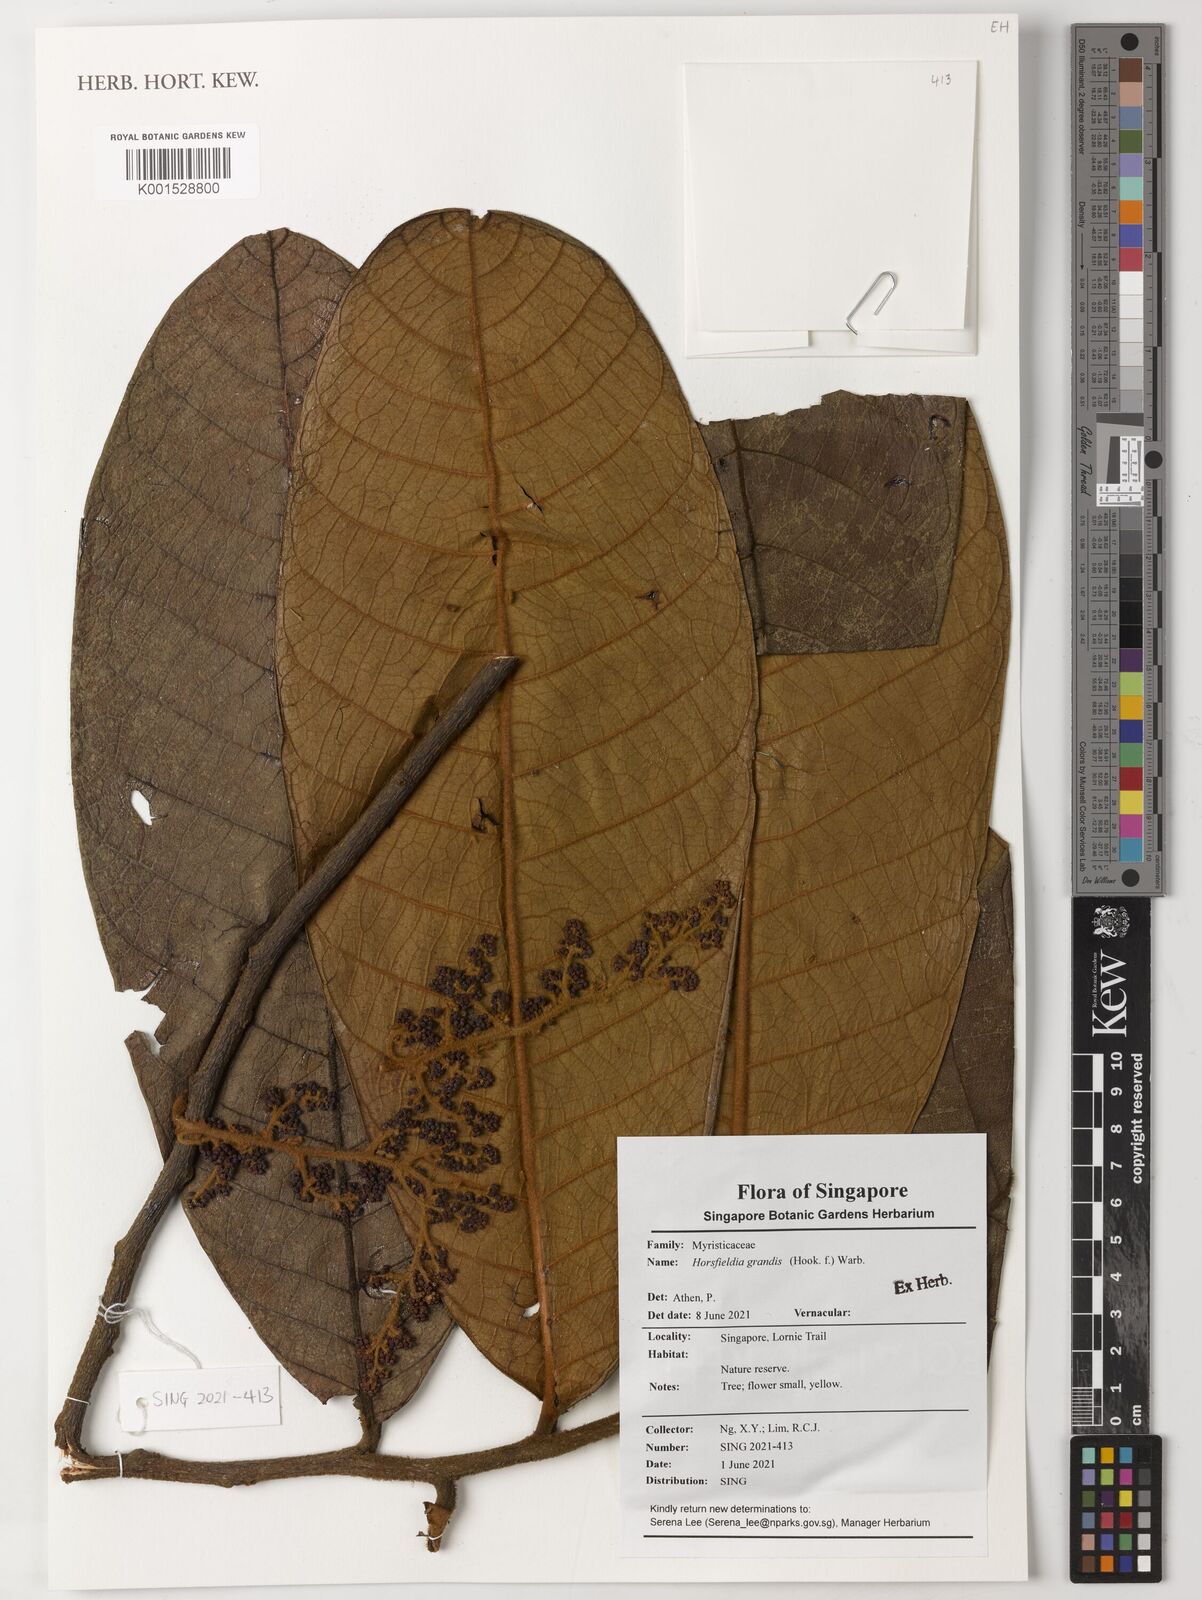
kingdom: Plantae
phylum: Tracheophyta
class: Magnoliopsida
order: Magnoliales
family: Myristicaceae
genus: Horsfieldia
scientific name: Horsfieldia grandis
